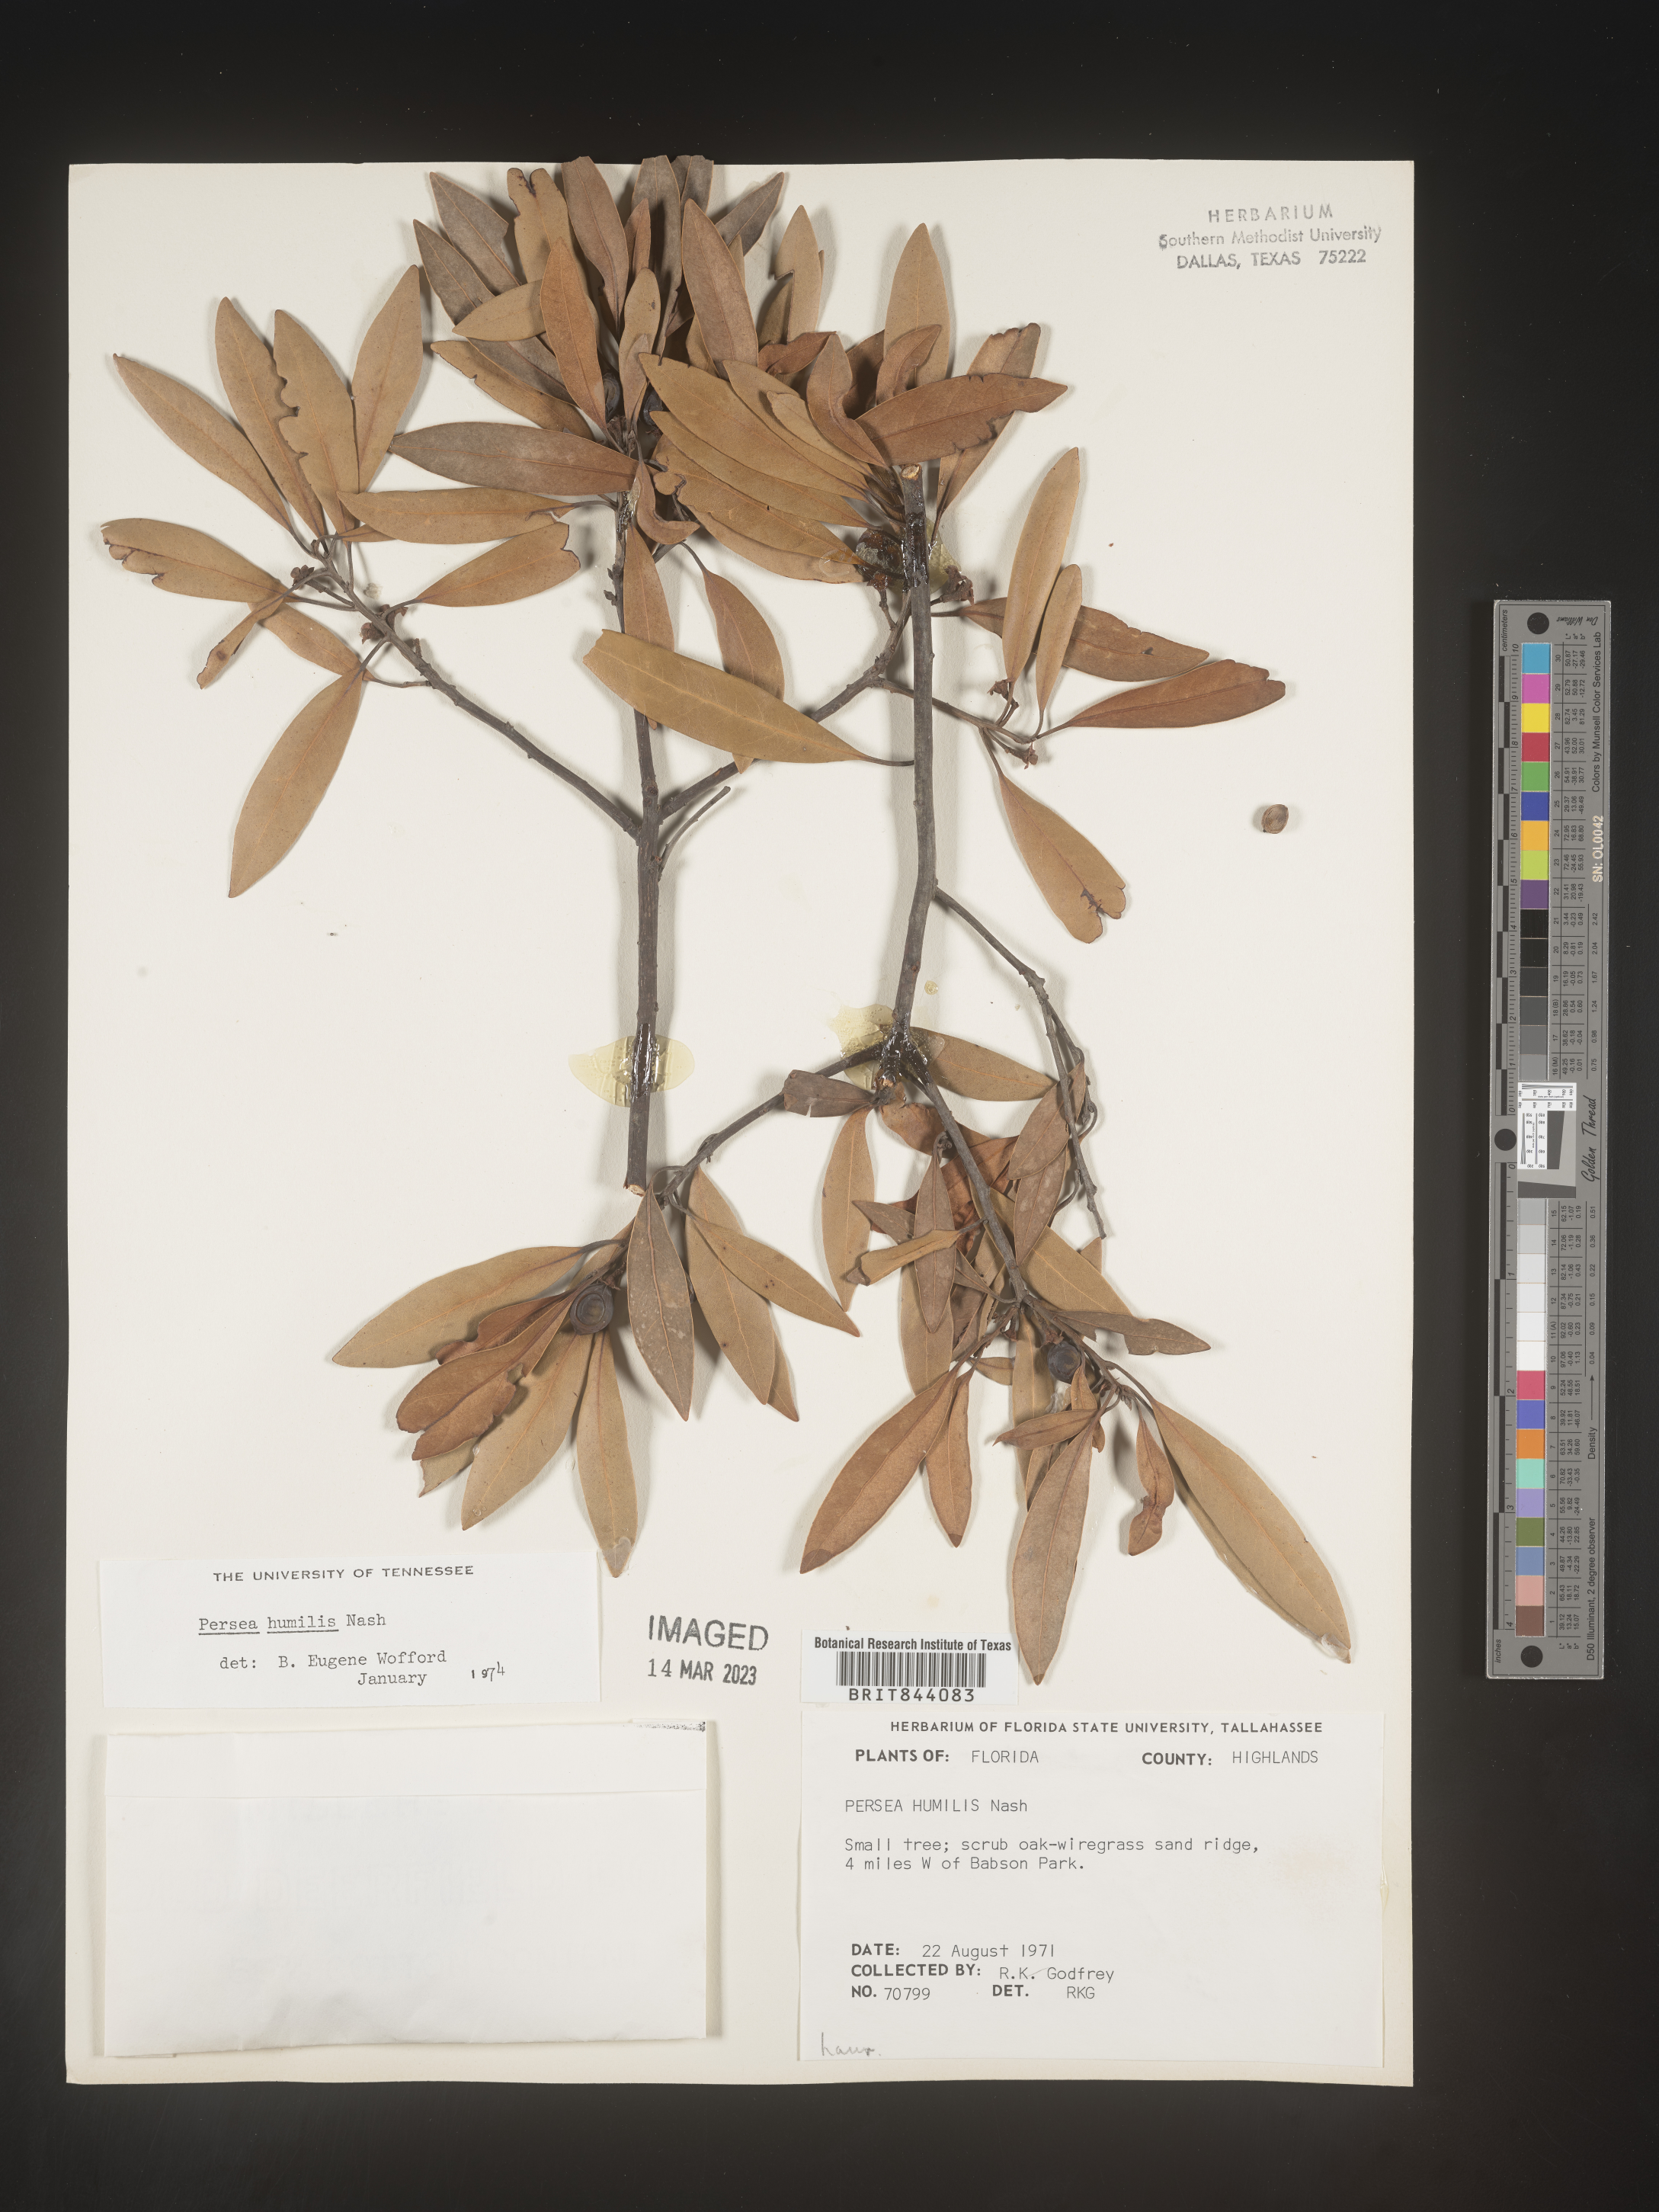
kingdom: Plantae
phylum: Tracheophyta
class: Magnoliopsida
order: Laurales
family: Lauraceae
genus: Persea
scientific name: Persea
